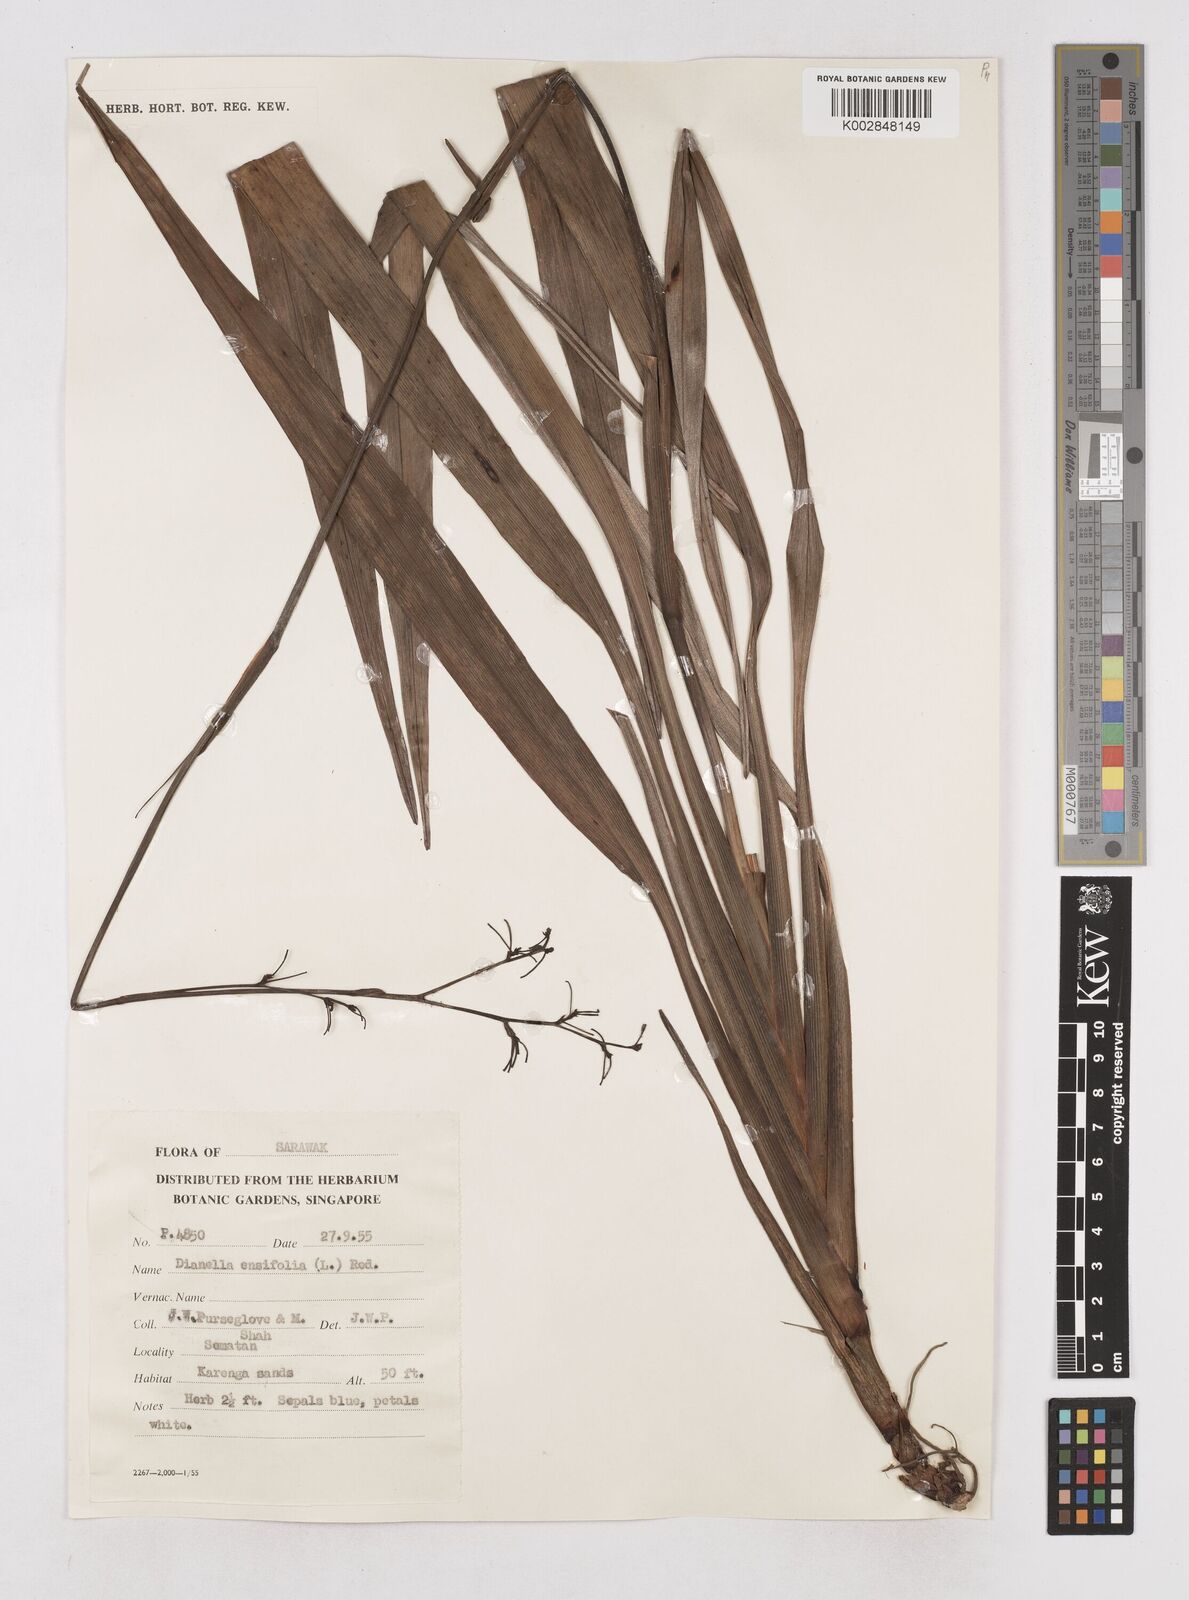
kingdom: Plantae
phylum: Tracheophyta
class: Liliopsida
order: Asparagales
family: Asphodelaceae
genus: Dianella
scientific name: Dianella ensifolia
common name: New zealand lilyplant
